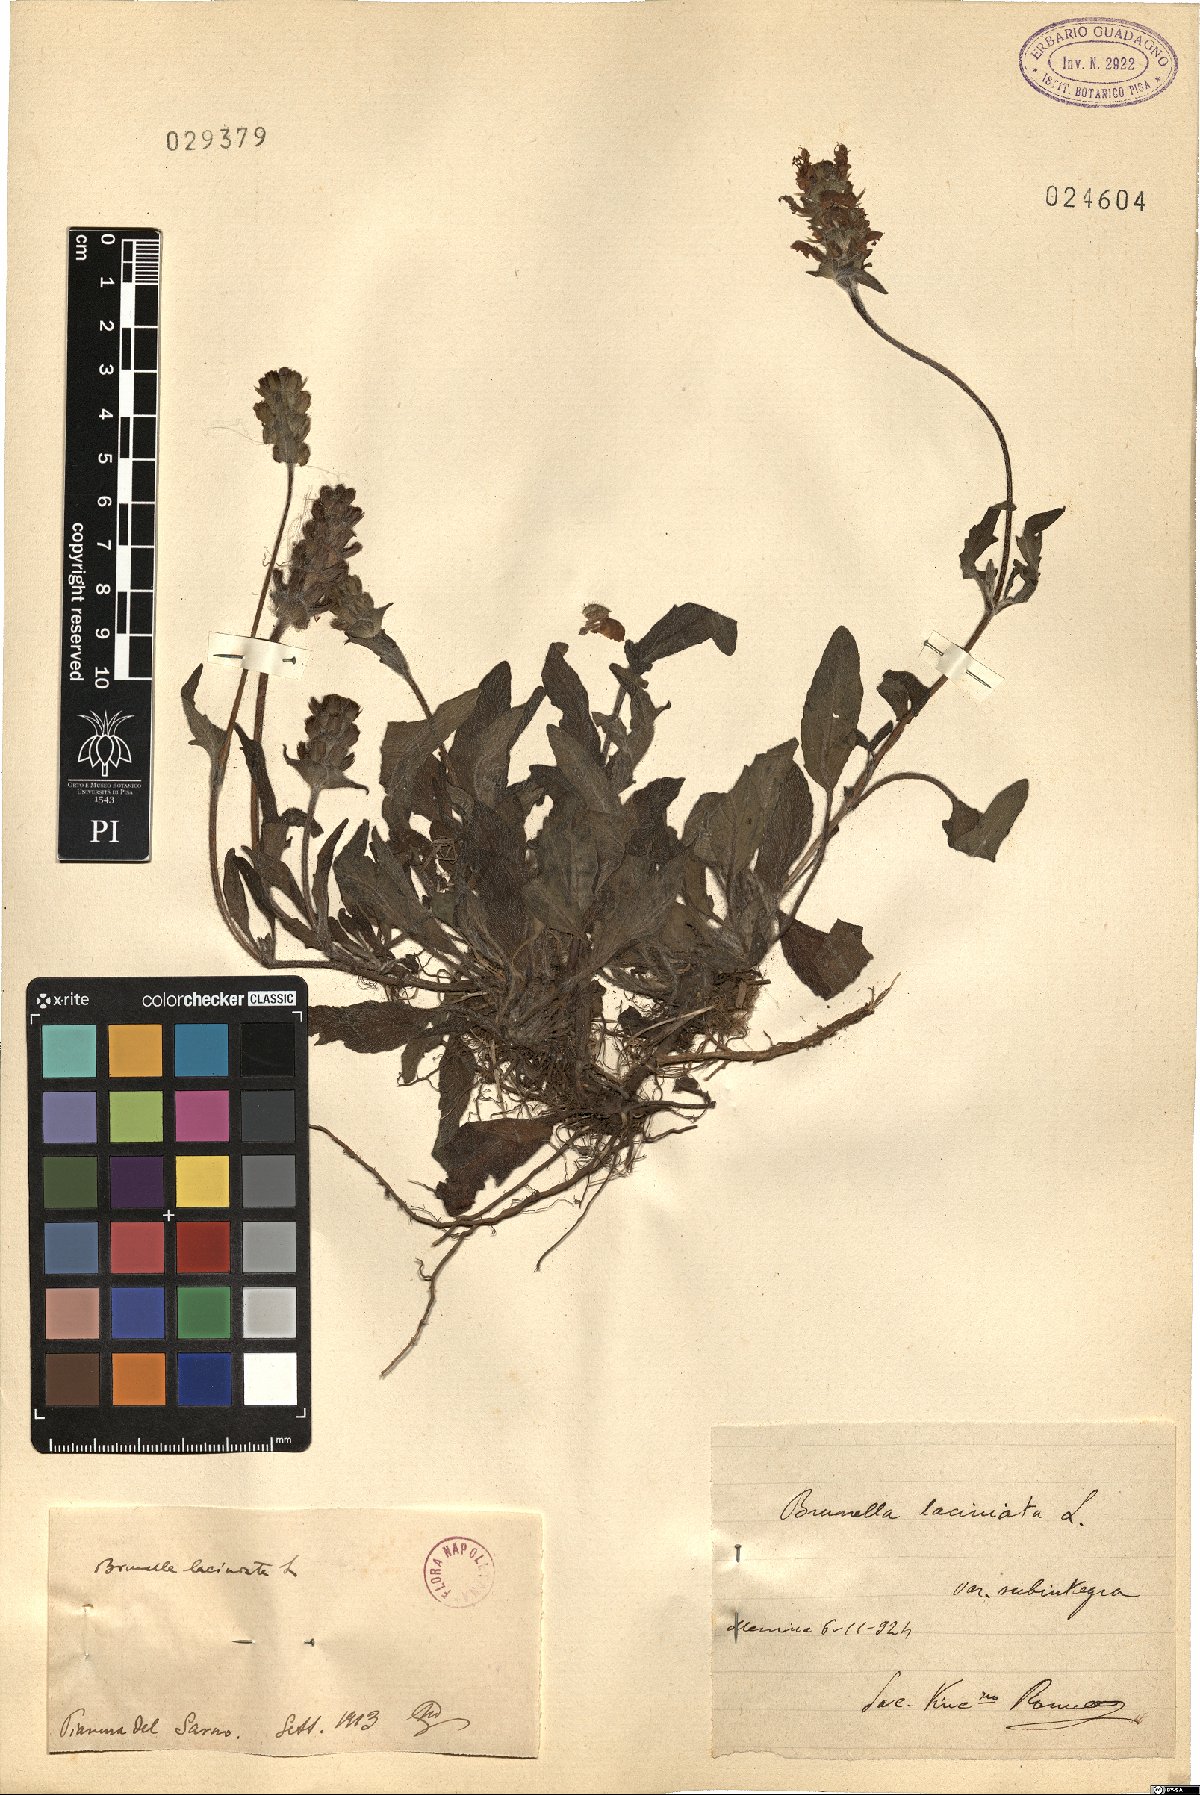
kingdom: Plantae
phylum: Tracheophyta
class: Magnoliopsida
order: Lamiales
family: Lamiaceae
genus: Prunella
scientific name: Prunella laciniata
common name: Cut-leaved selfheal
